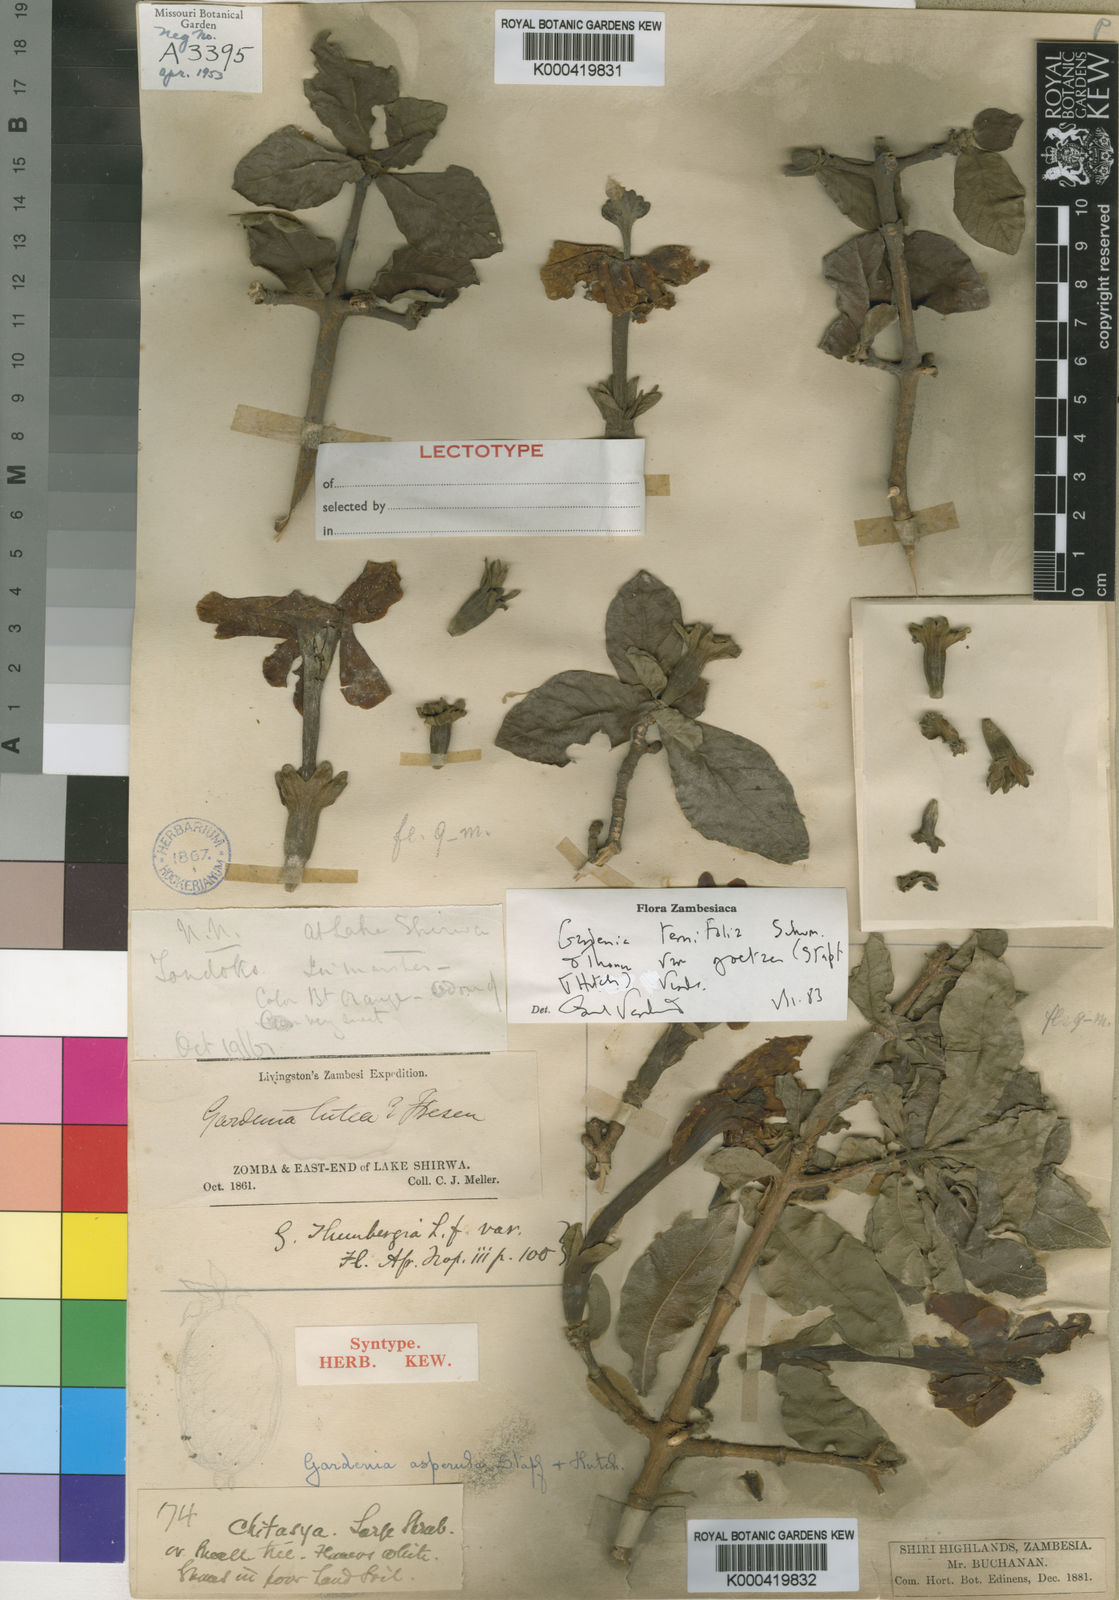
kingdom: Plantae
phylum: Tracheophyta
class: Magnoliopsida
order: Gentianales
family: Rubiaceae
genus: Gardenia
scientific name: Gardenia ternifolia
